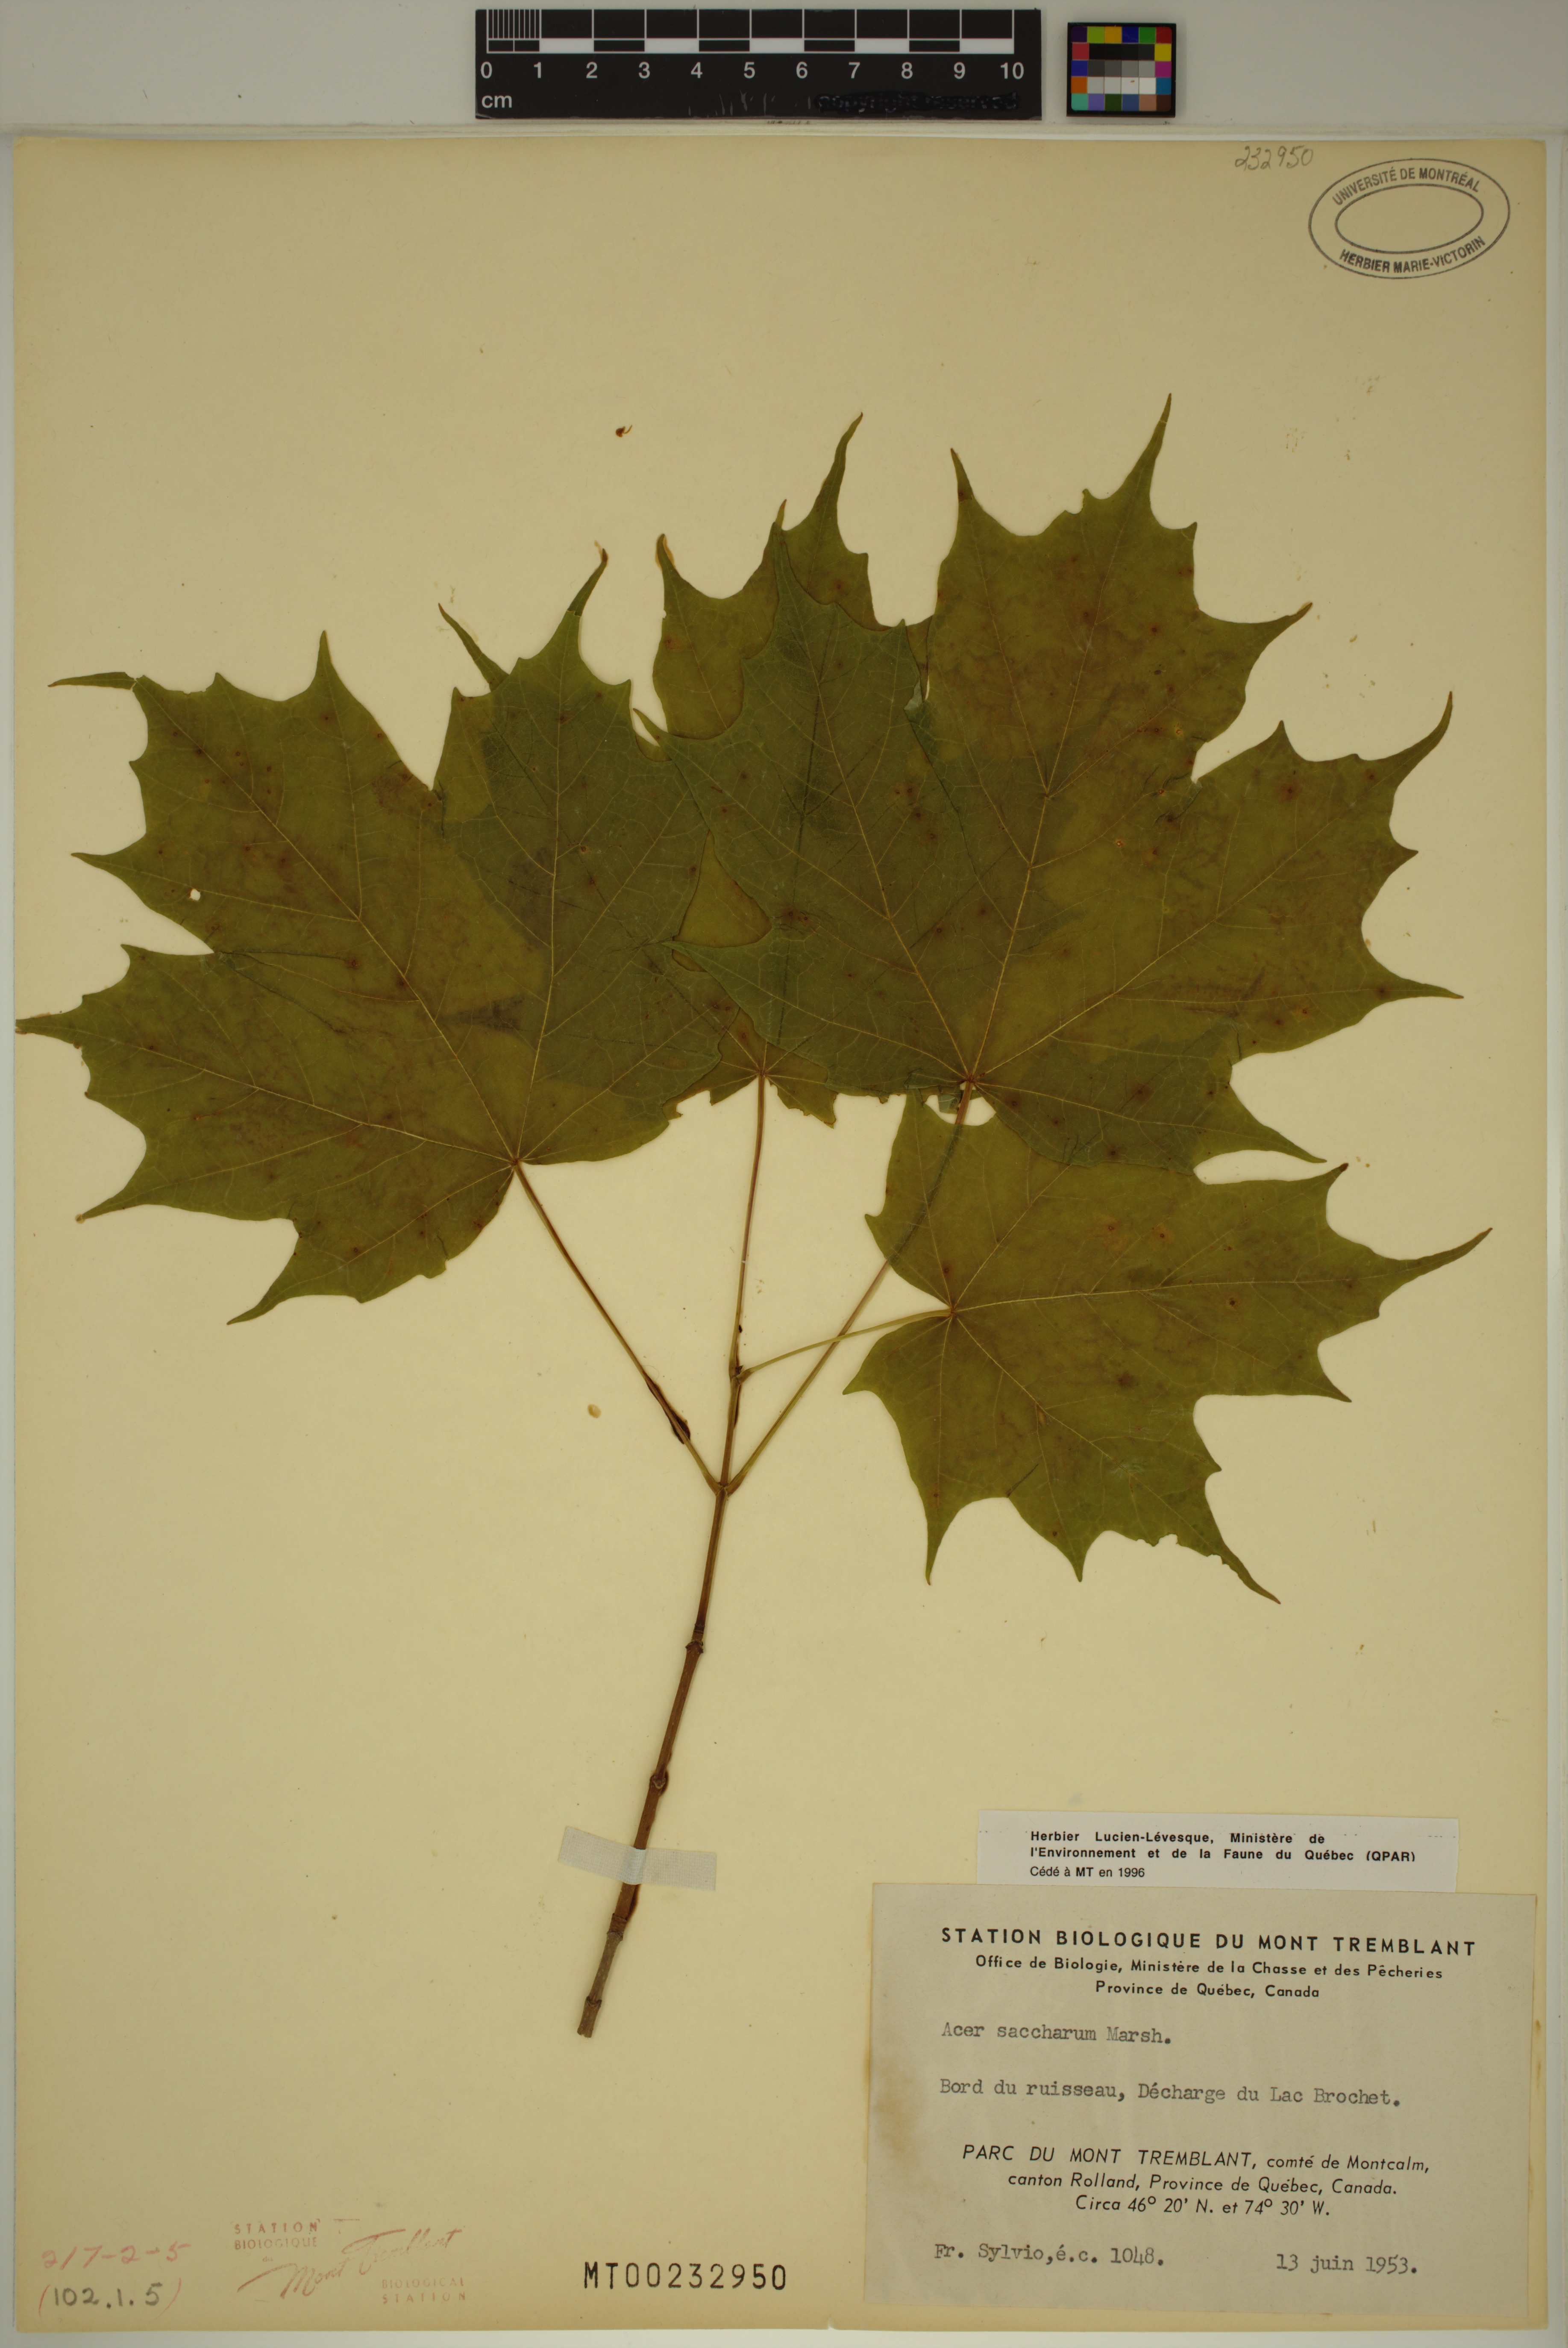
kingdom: Plantae
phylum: Tracheophyta
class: Magnoliopsida
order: Sapindales
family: Sapindaceae
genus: Acer
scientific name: Acer saccharum
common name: Sugar maple
